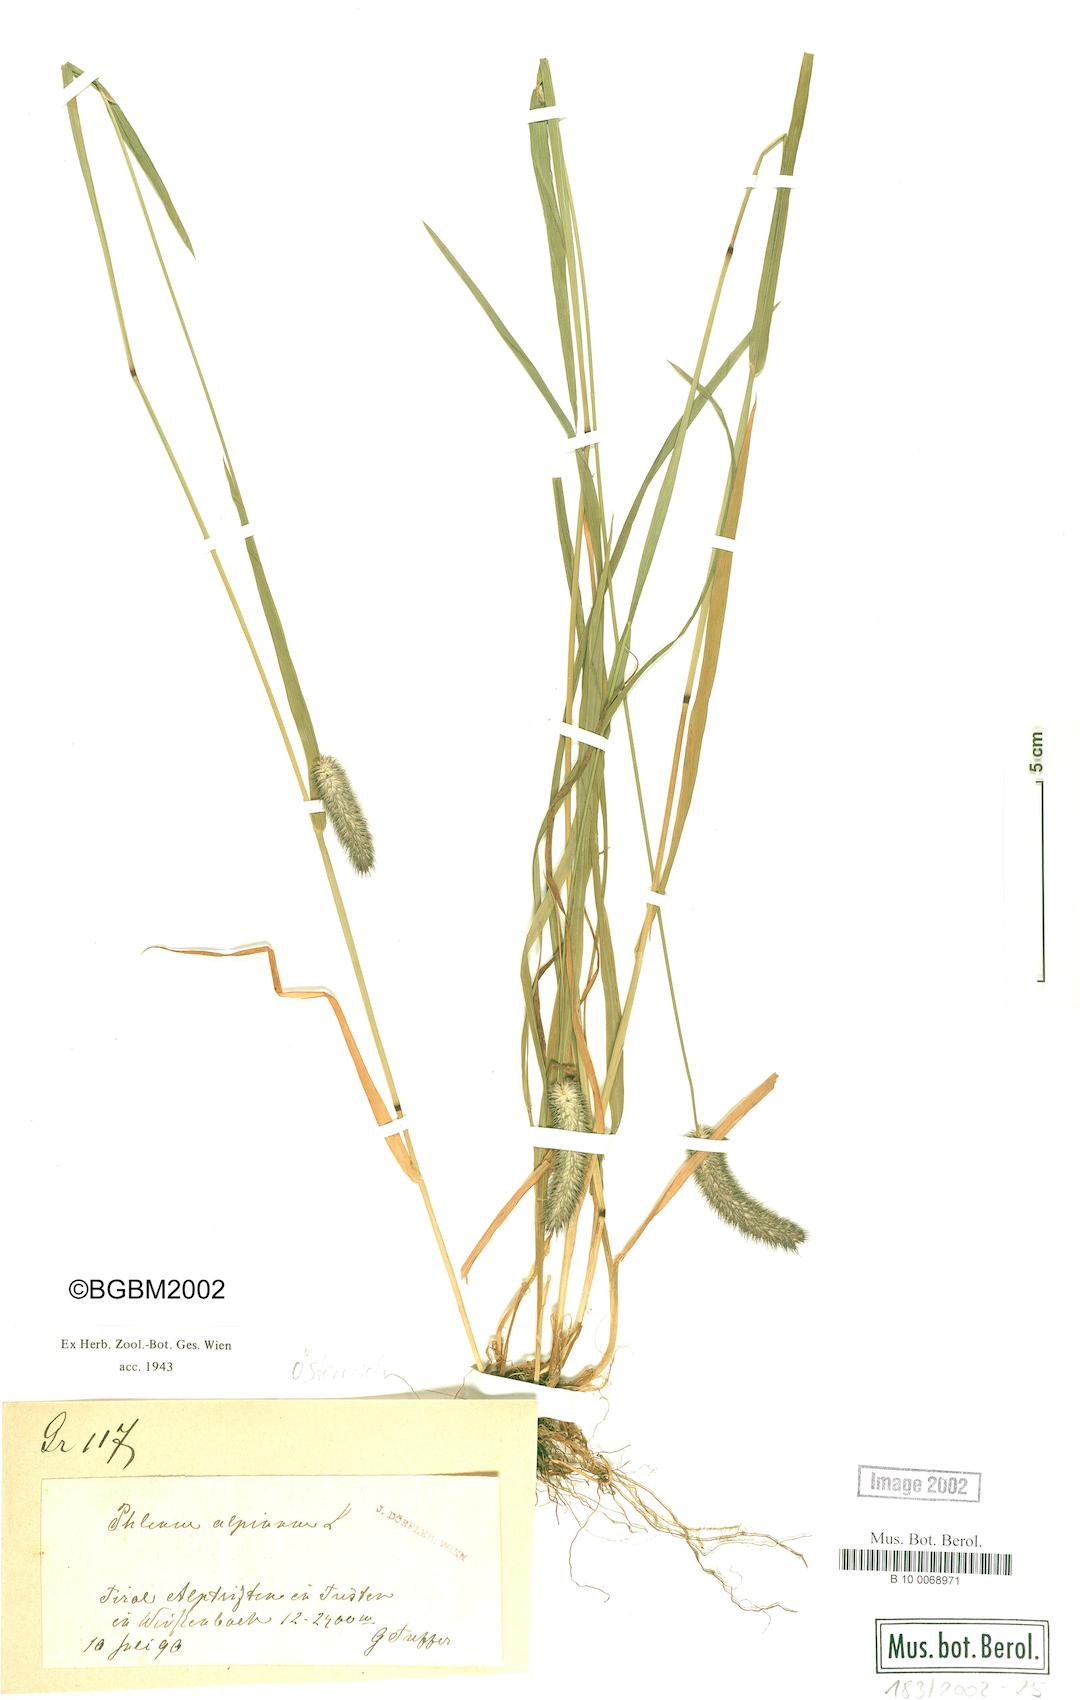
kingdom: Plantae
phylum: Tracheophyta
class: Liliopsida
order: Poales
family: Poaceae
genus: Phleum
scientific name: Phleum alpinum
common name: Alpine cat's-tail
